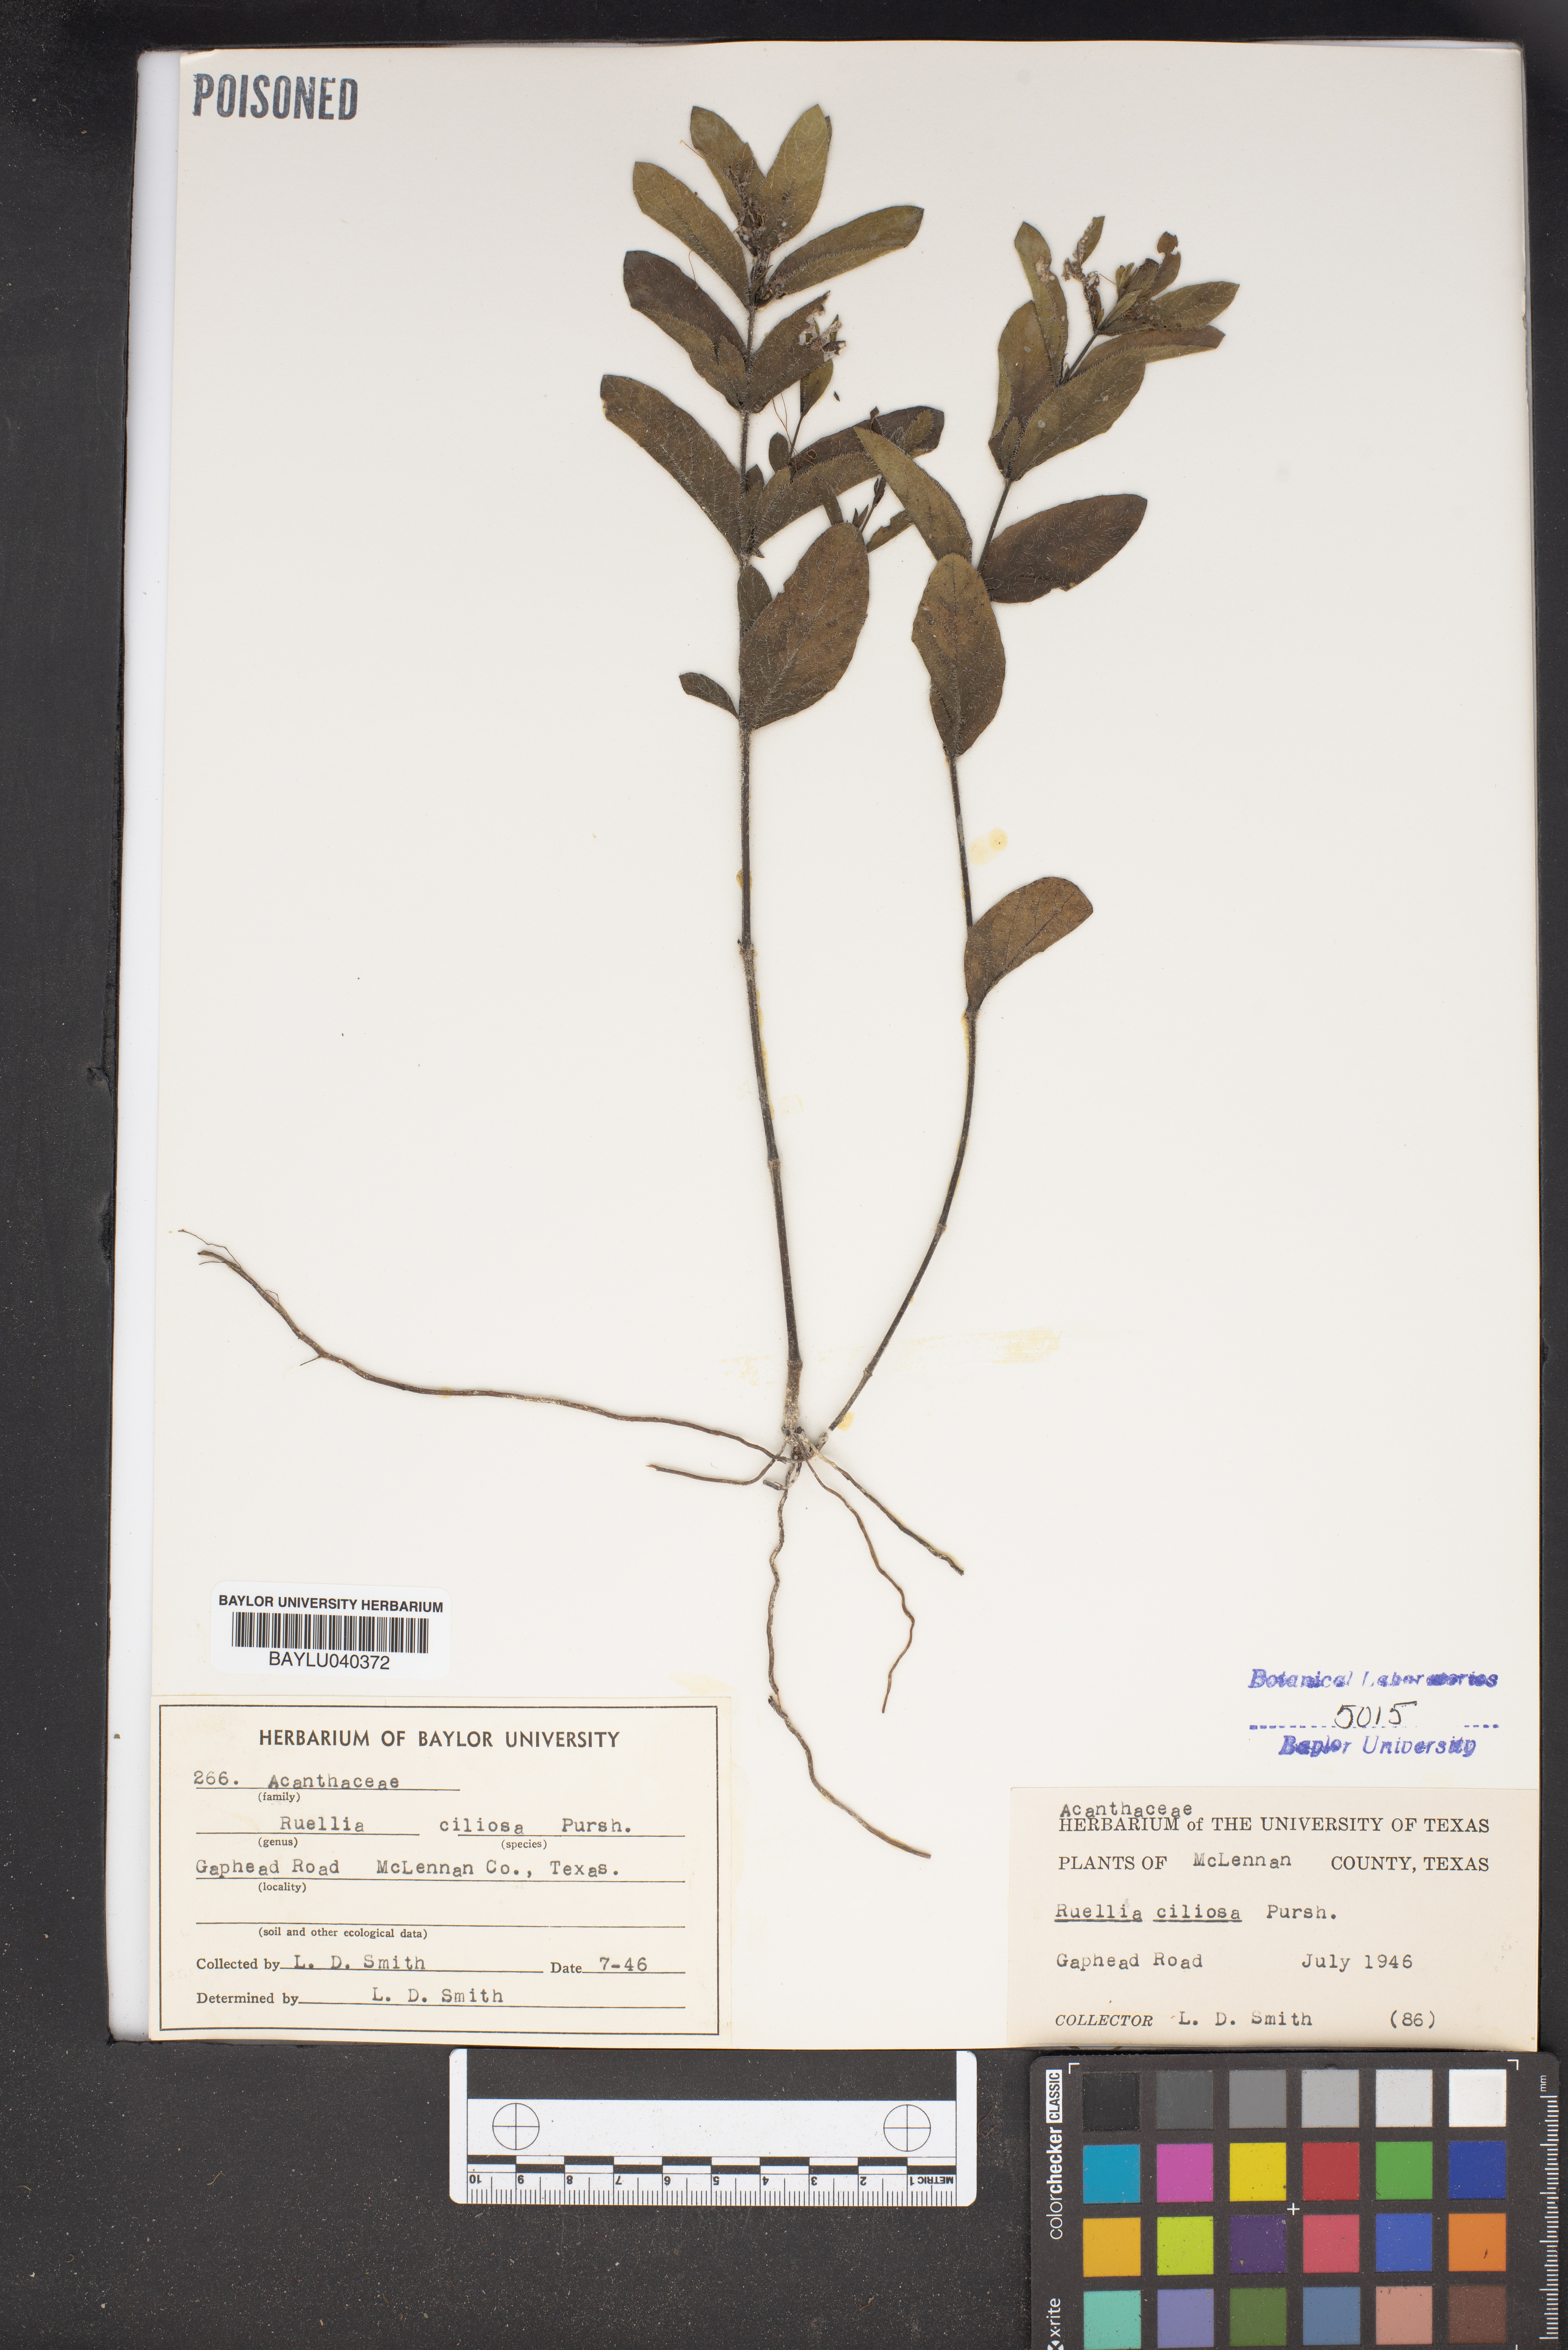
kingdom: Plantae
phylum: Tracheophyta
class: Magnoliopsida
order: Lamiales
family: Acanthaceae
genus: Ruellia
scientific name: Ruellia caroliniensis
